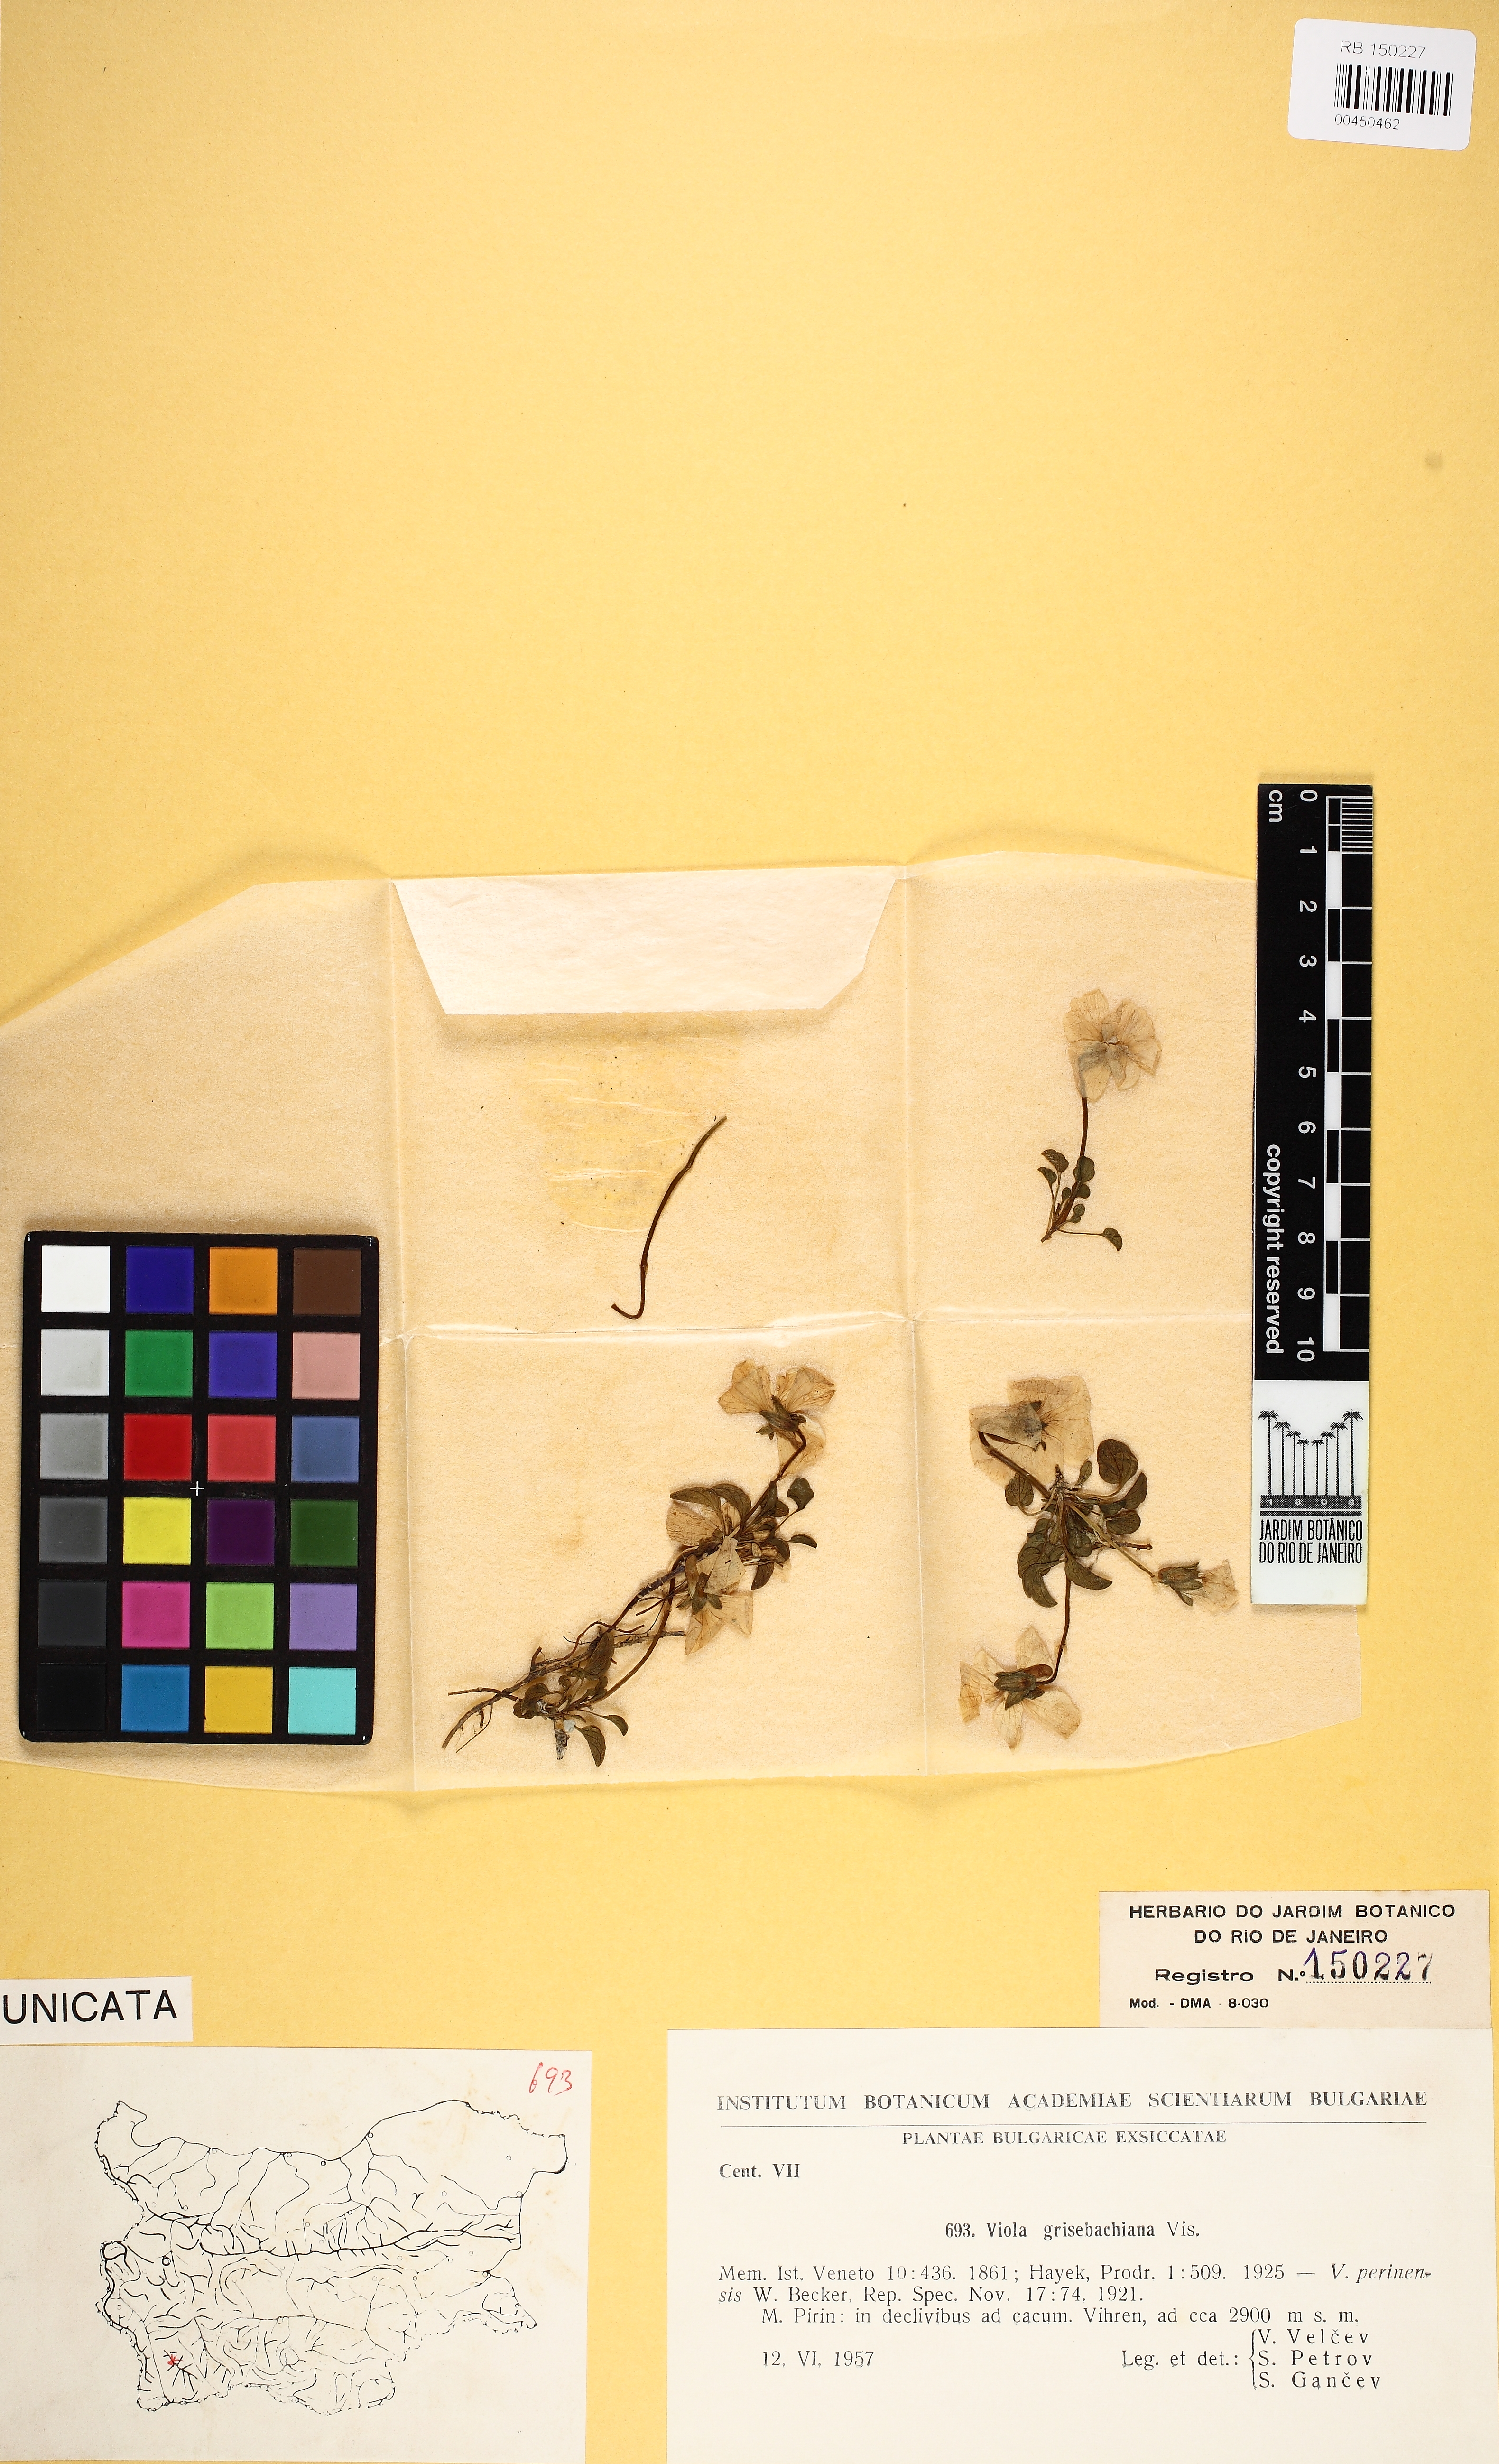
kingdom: Plantae
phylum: Tracheophyta
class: Magnoliopsida
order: Malpighiales
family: Violaceae
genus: Viola
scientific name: Viola grisebachiana
